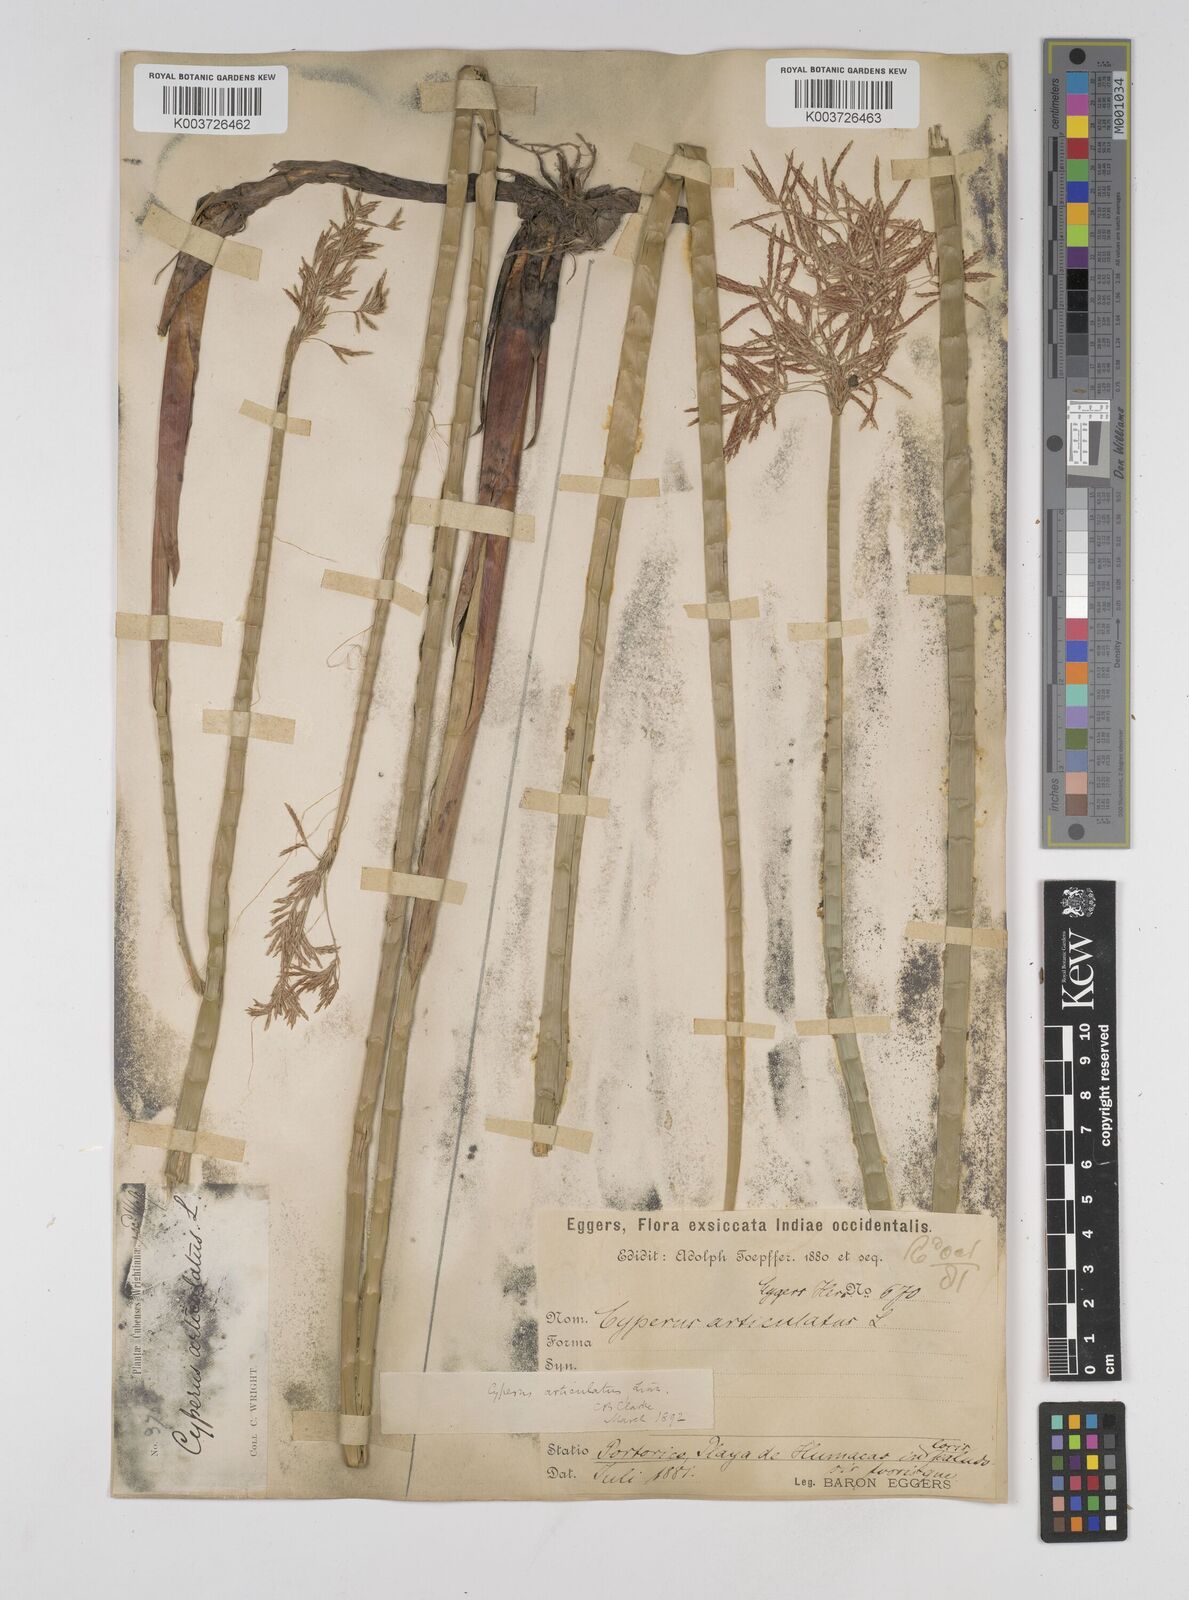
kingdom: Plantae
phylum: Tracheophyta
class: Liliopsida
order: Poales
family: Cyperaceae
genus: Cyperus
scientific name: Cyperus articulatus
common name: Jointed flatsedge
